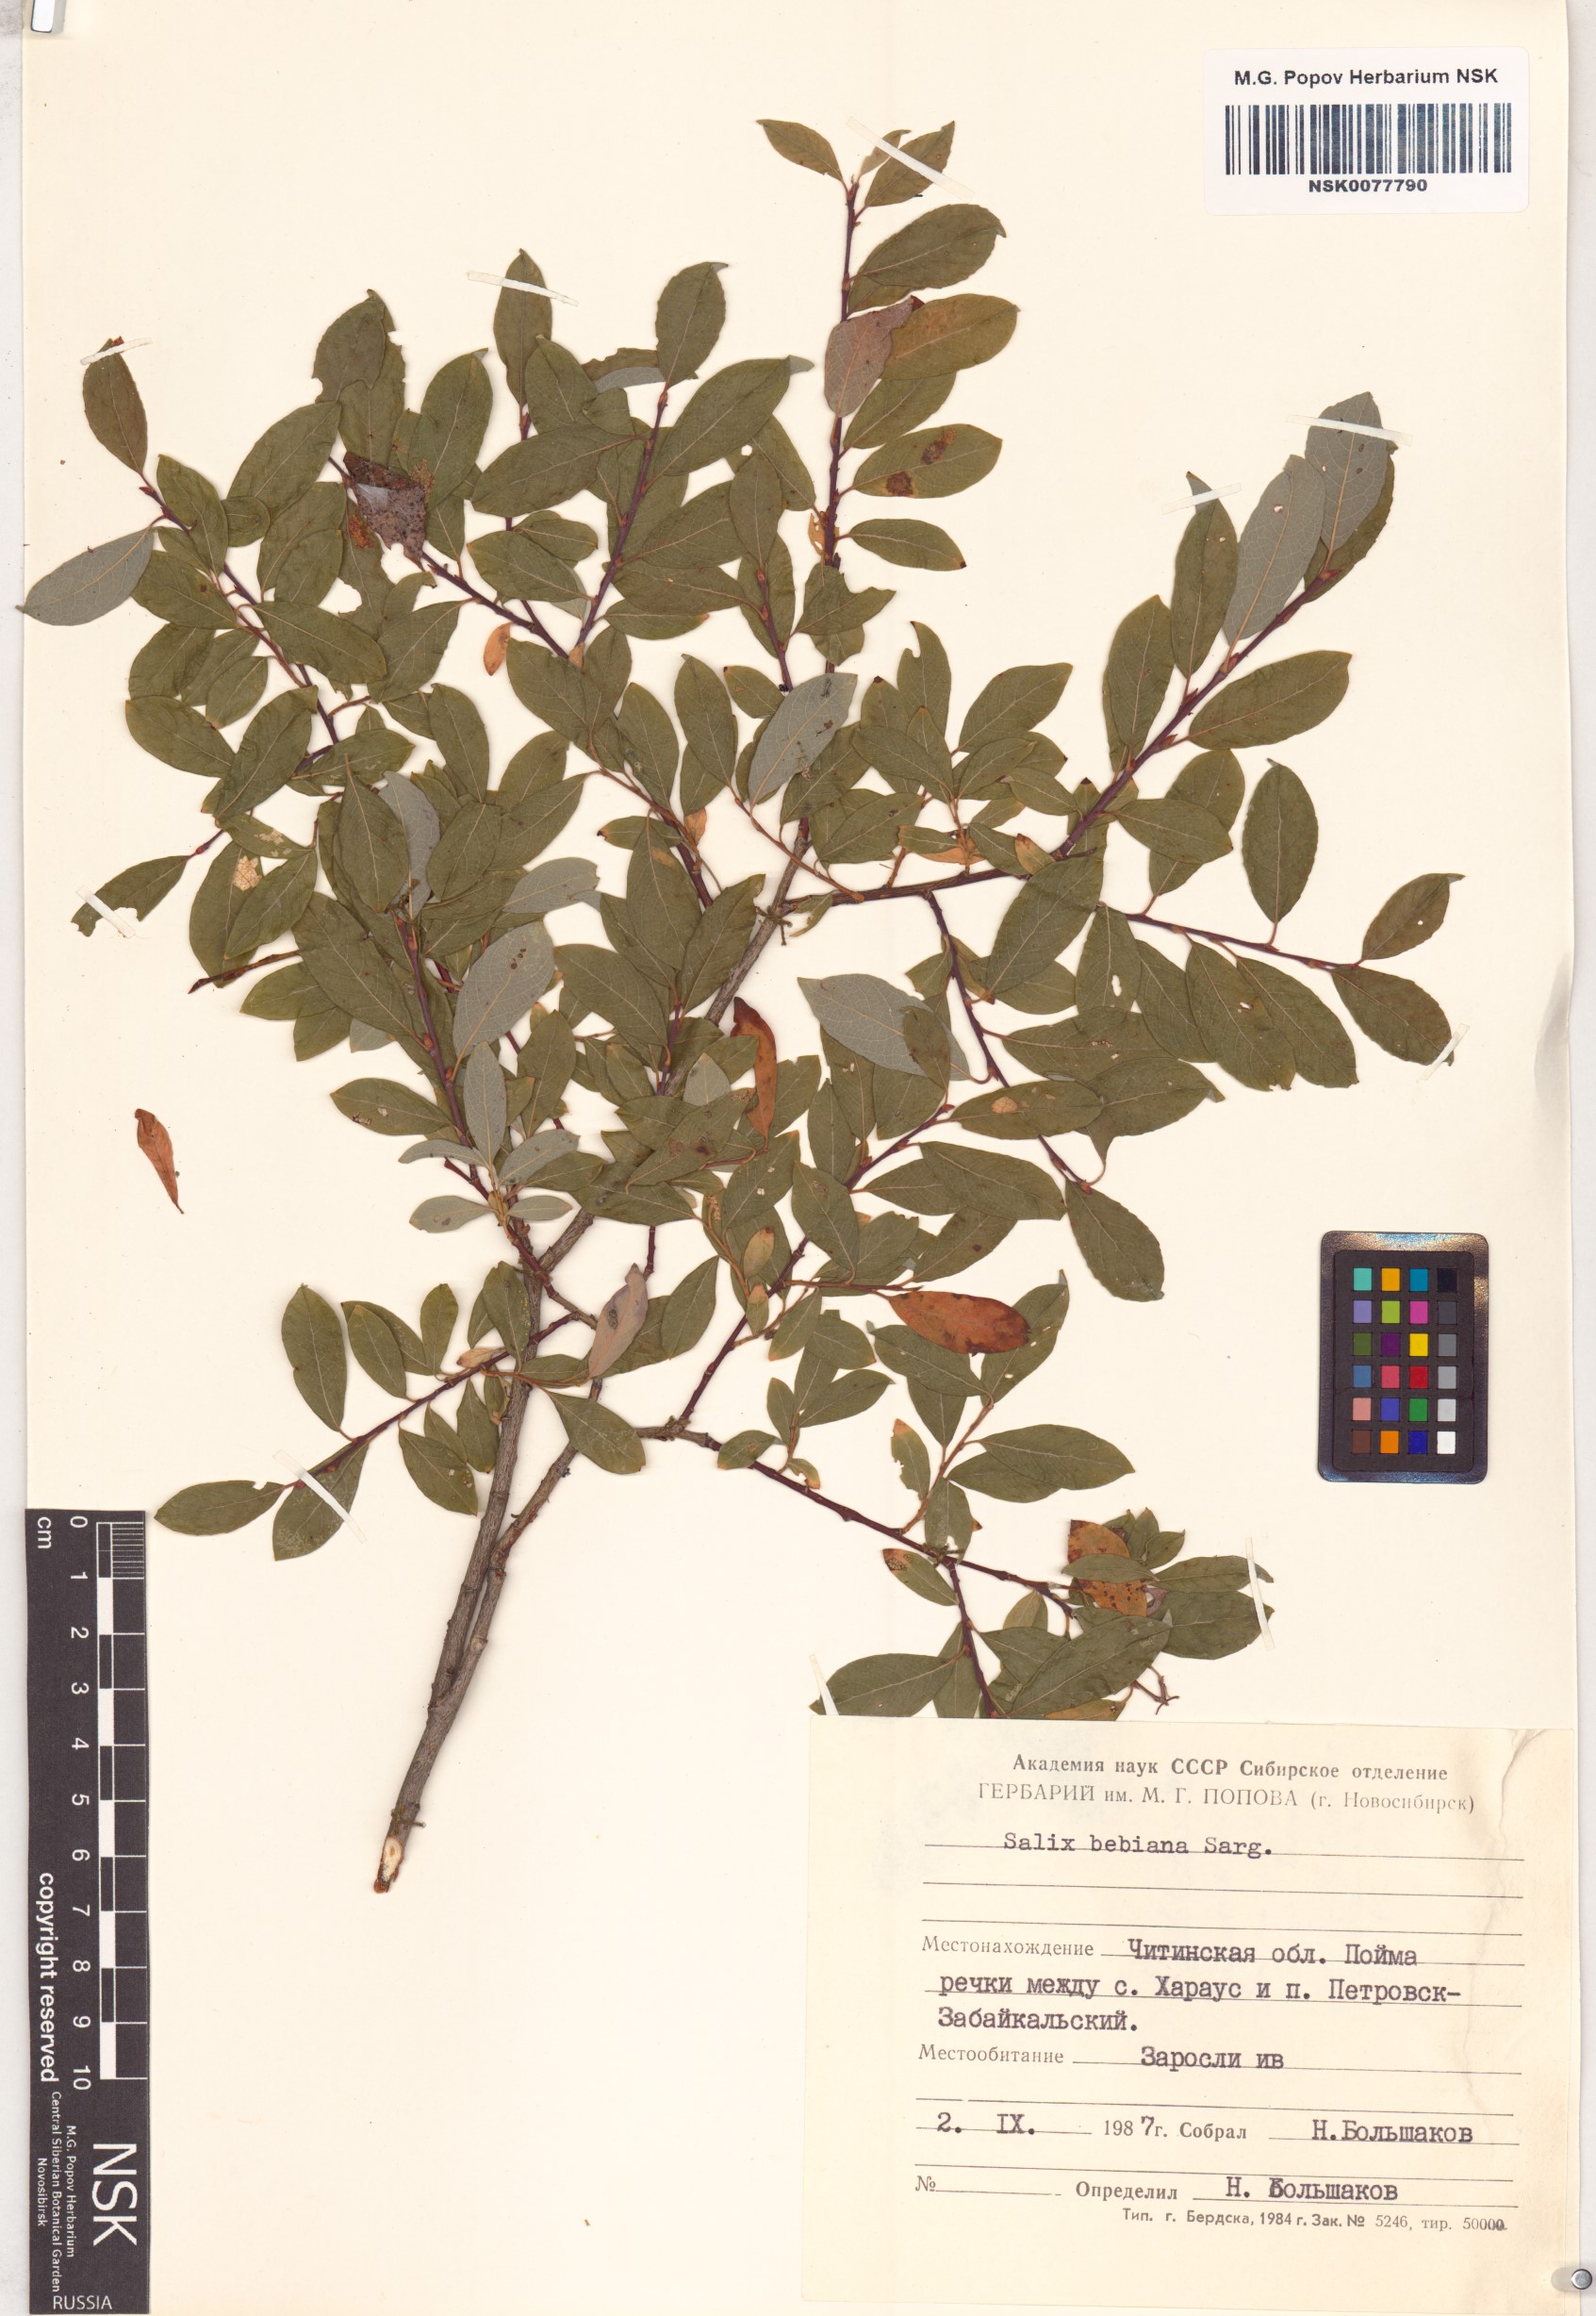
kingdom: Plantae
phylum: Tracheophyta
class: Magnoliopsida
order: Malpighiales
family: Salicaceae
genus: Salix
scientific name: Salix bebbiana
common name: Bebb's willow
